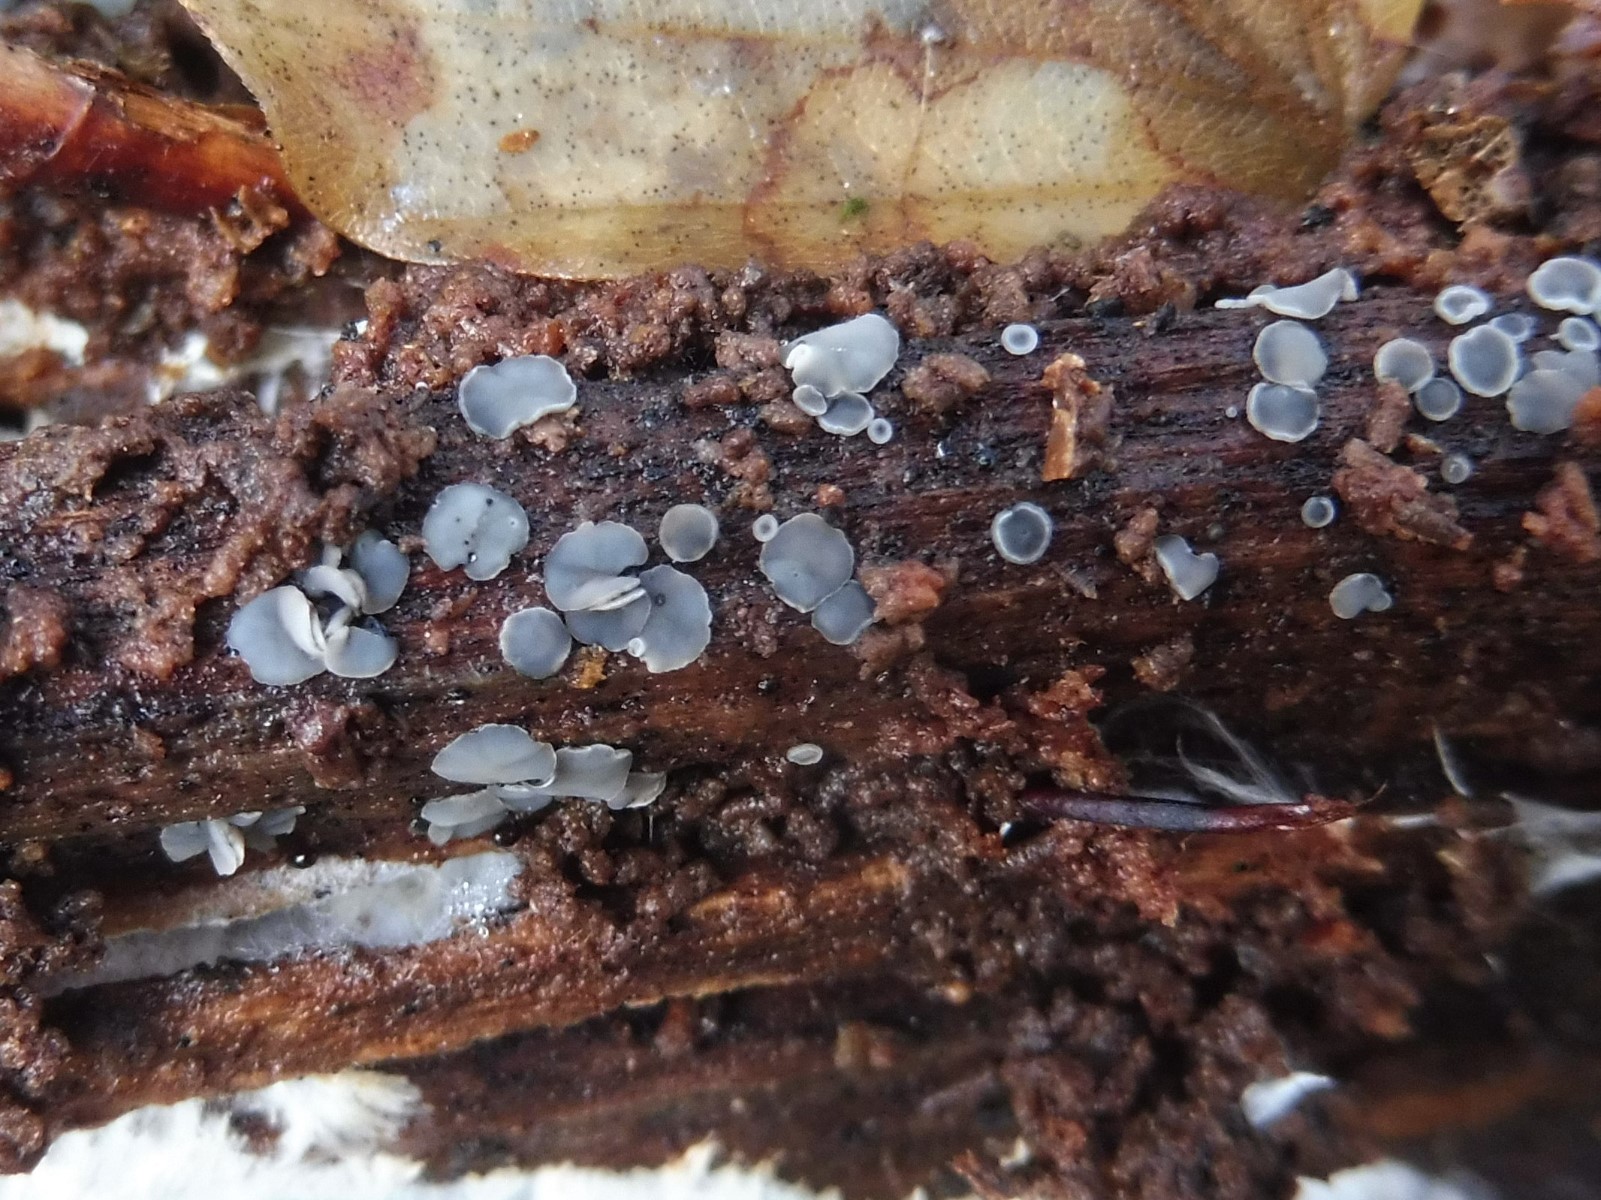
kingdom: Fungi
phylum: Ascomycota
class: Leotiomycetes
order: Helotiales
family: Mollisiaceae
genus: Mollisia
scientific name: Mollisia cinerea
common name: almindelig gråskive
